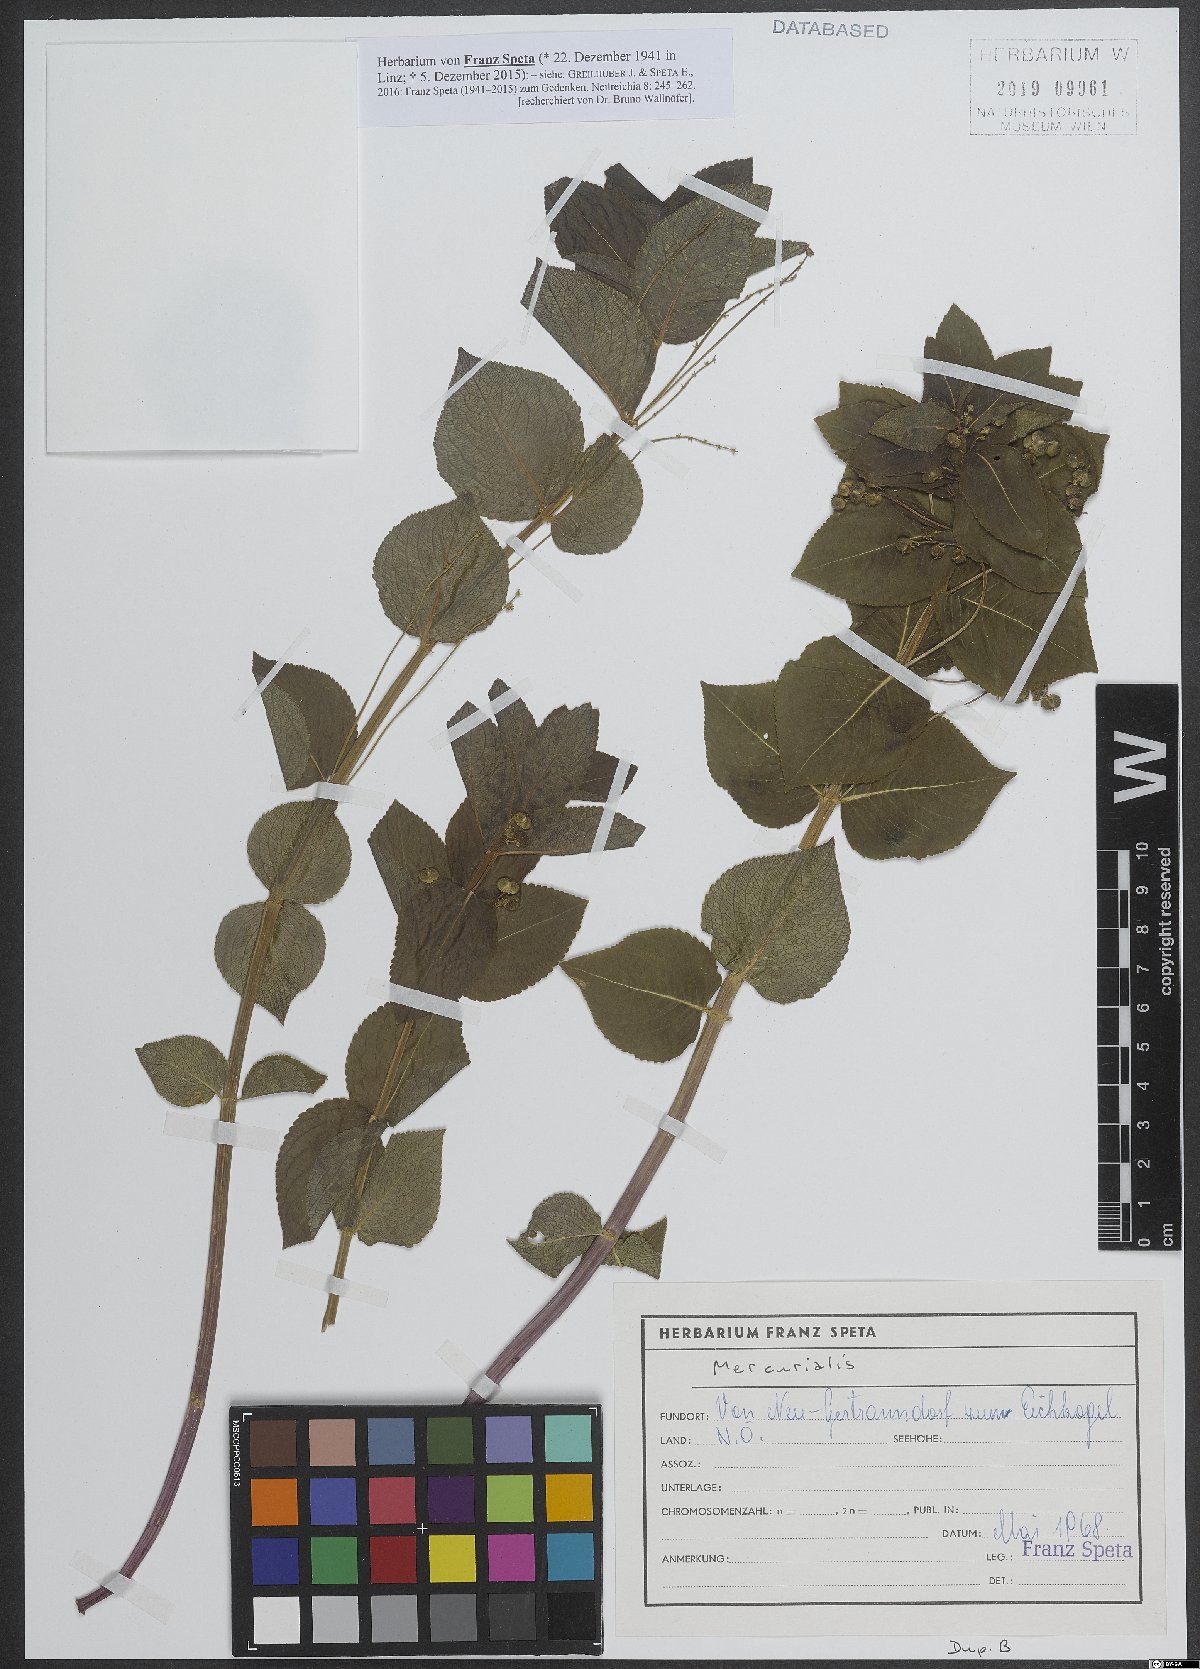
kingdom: Plantae
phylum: Tracheophyta
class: Magnoliopsida
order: Malpighiales
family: Euphorbiaceae
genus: Mercurialis
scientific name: Mercurialis
